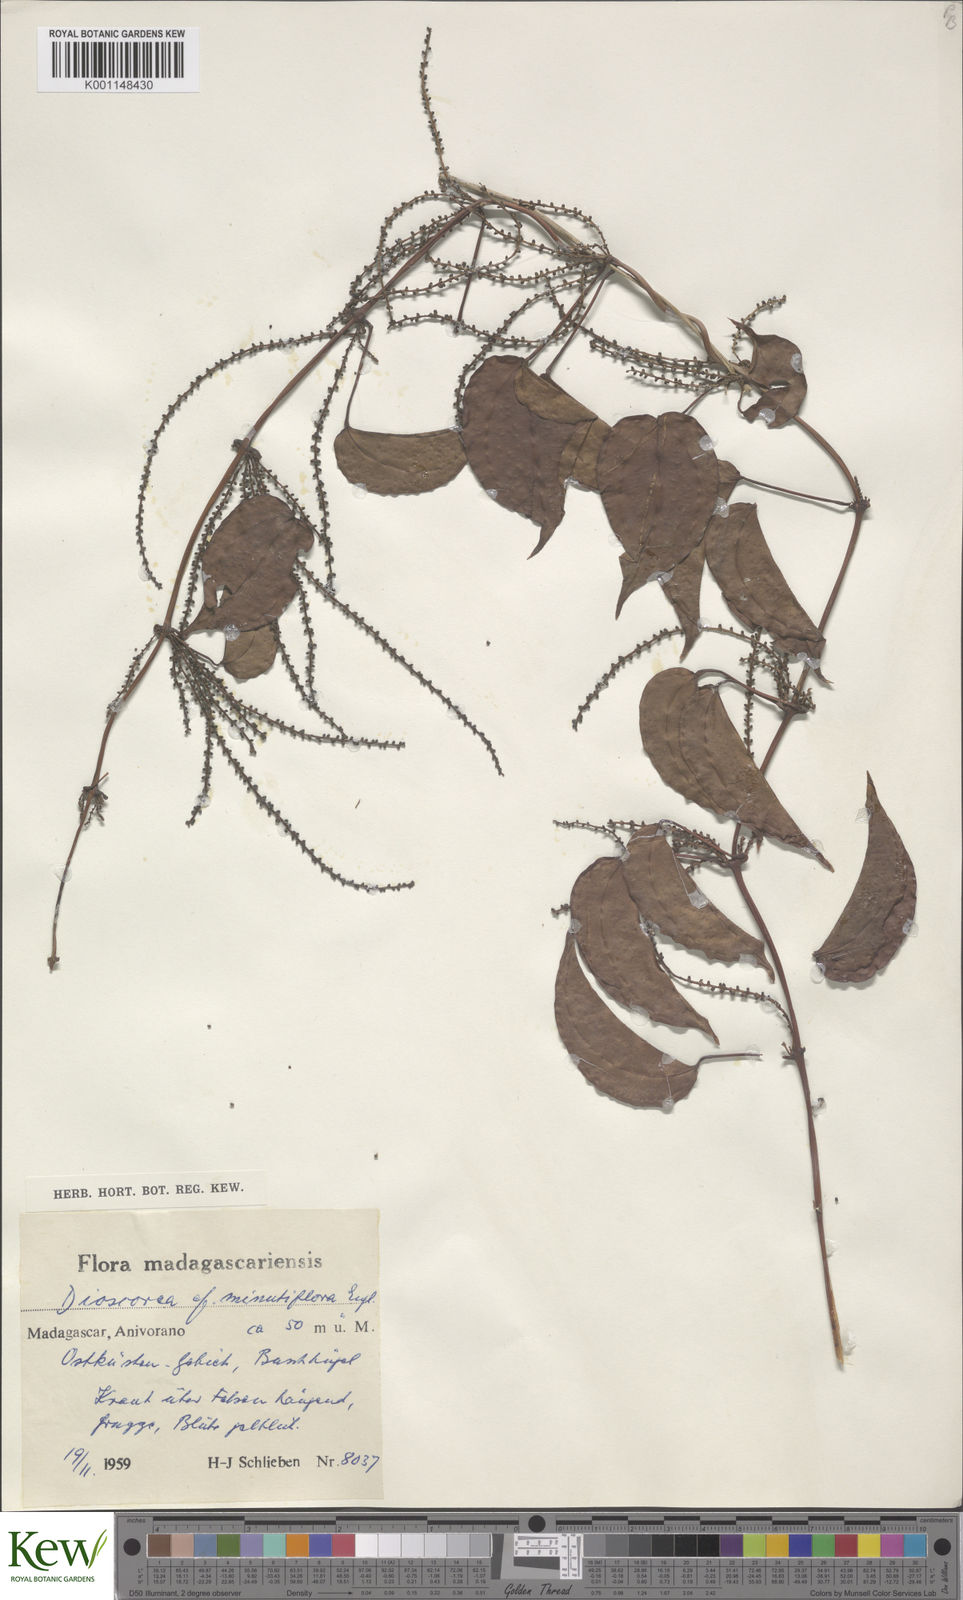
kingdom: Plantae
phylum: Tracheophyta
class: Liliopsida
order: Dioscoreales
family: Dioscoreaceae
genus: Dioscorea
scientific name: Dioscorea minutiflora
